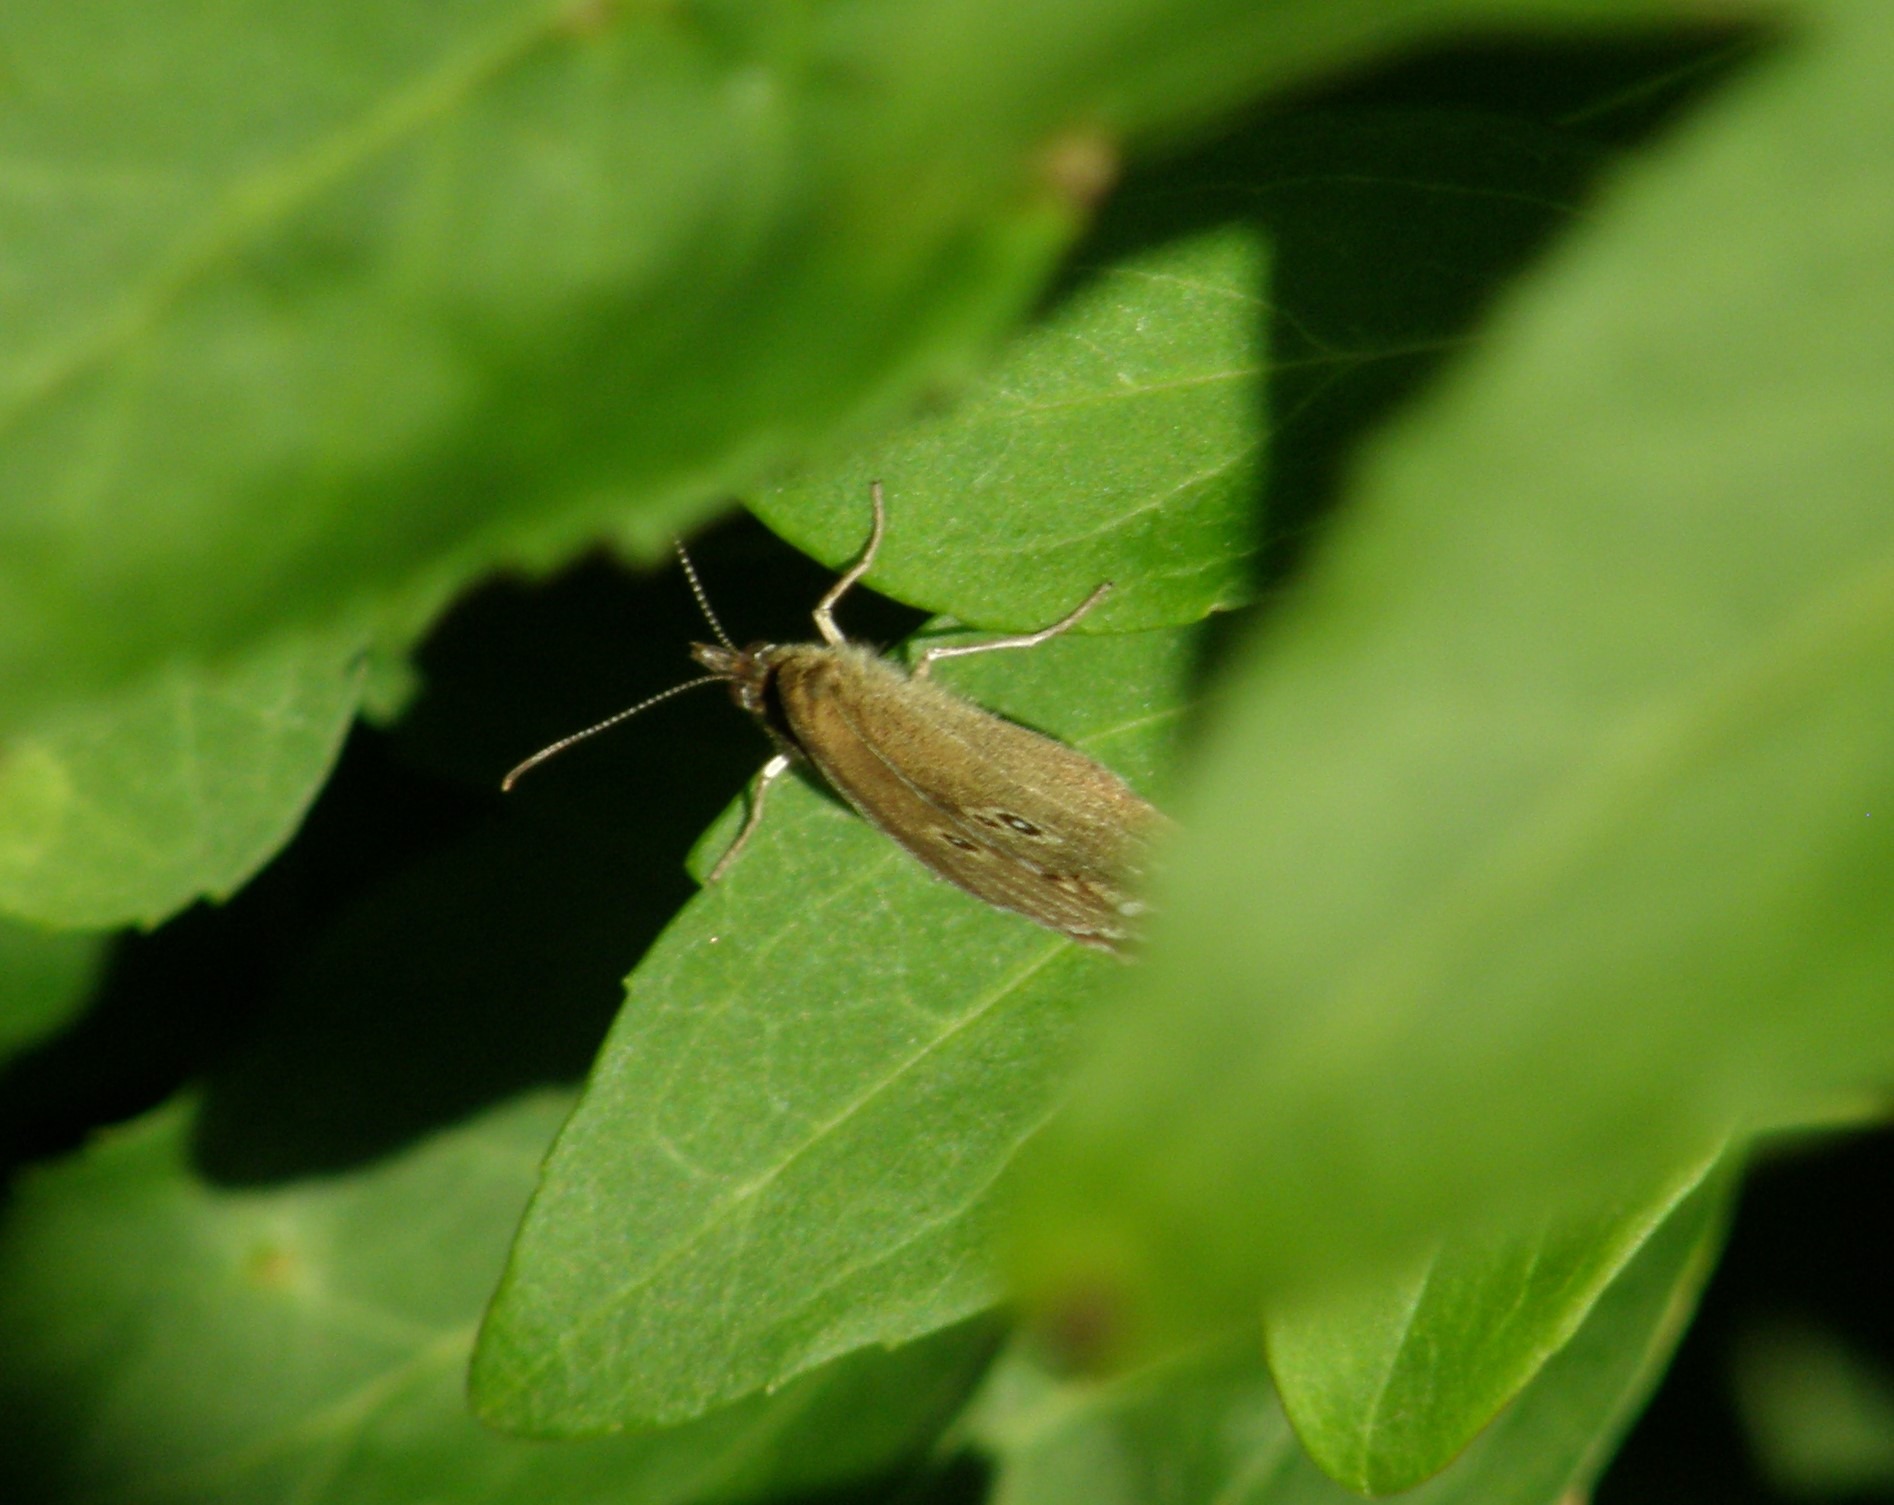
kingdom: Animalia
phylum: Arthropoda
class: Insecta
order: Lepidoptera
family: Nymphalidae
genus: Aphantopus
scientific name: Aphantopus hyperantus
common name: Engrandøje
